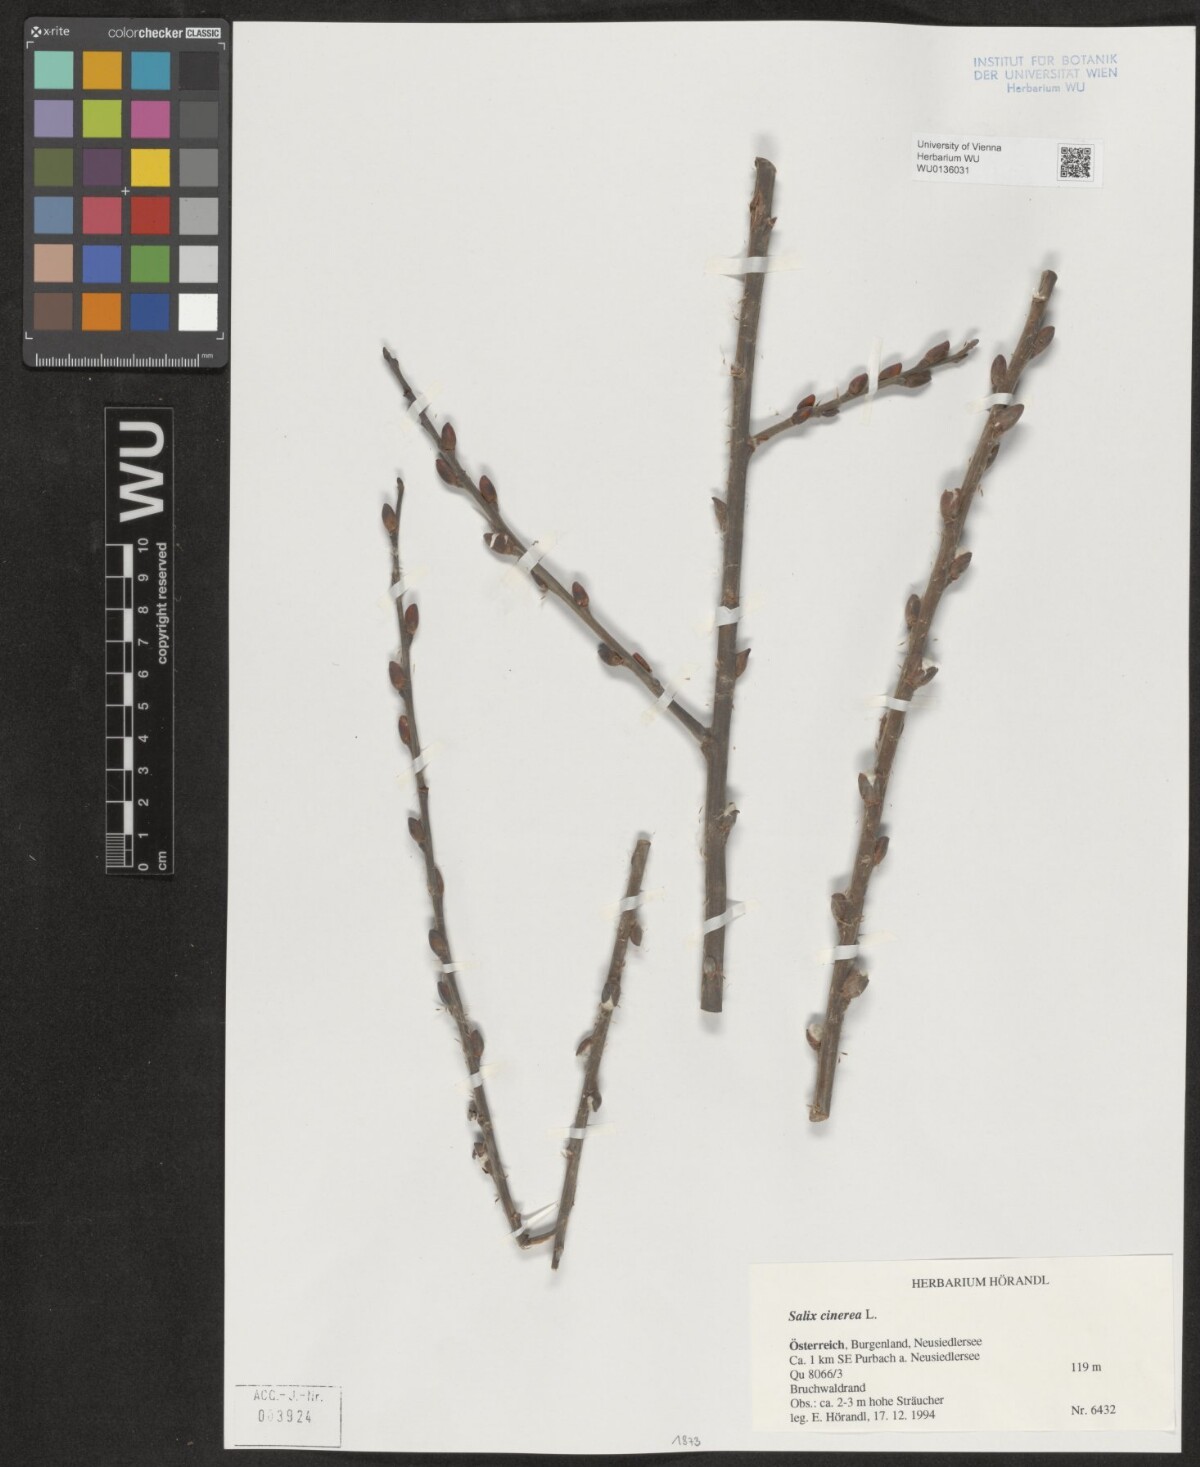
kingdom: Plantae
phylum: Tracheophyta
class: Magnoliopsida
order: Malpighiales
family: Salicaceae
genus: Salix
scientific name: Salix cinerea
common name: Common sallow
